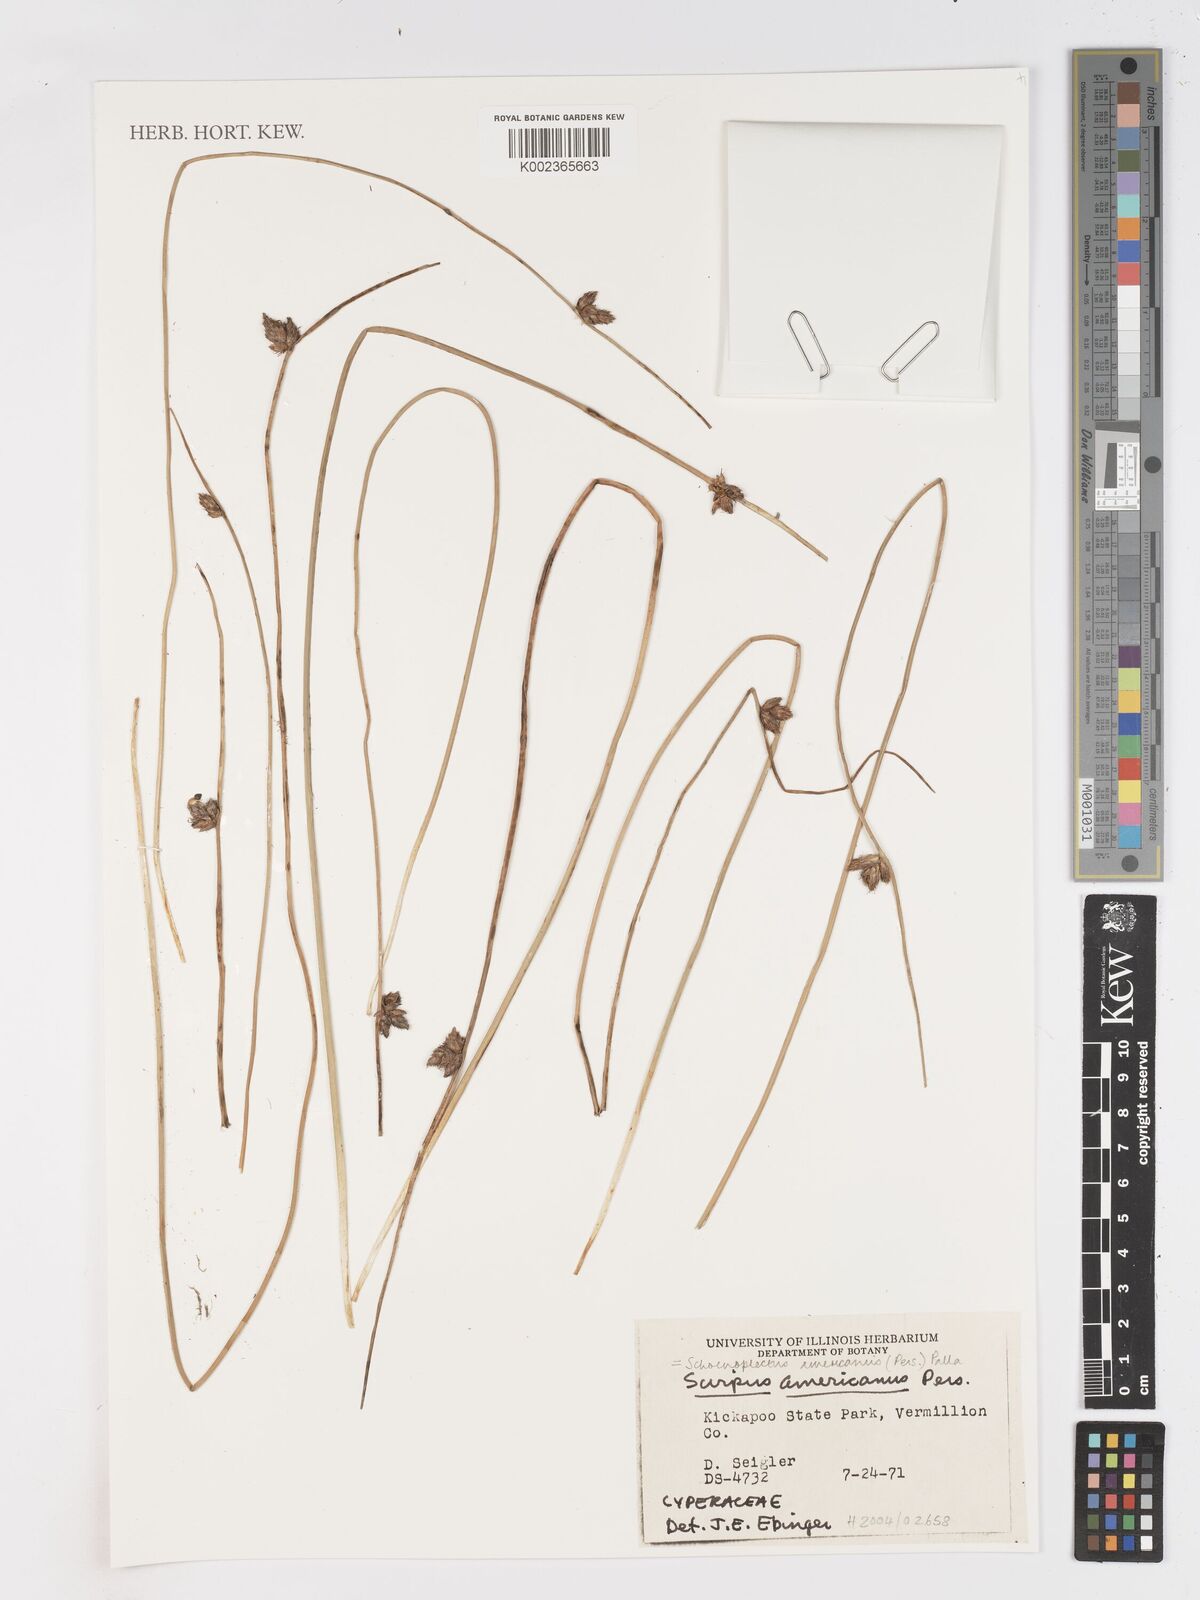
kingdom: Plantae
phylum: Tracheophyta
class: Liliopsida
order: Poales
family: Cyperaceae
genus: Schoenoplectus
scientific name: Schoenoplectus americanus
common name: American three-square bulrush
